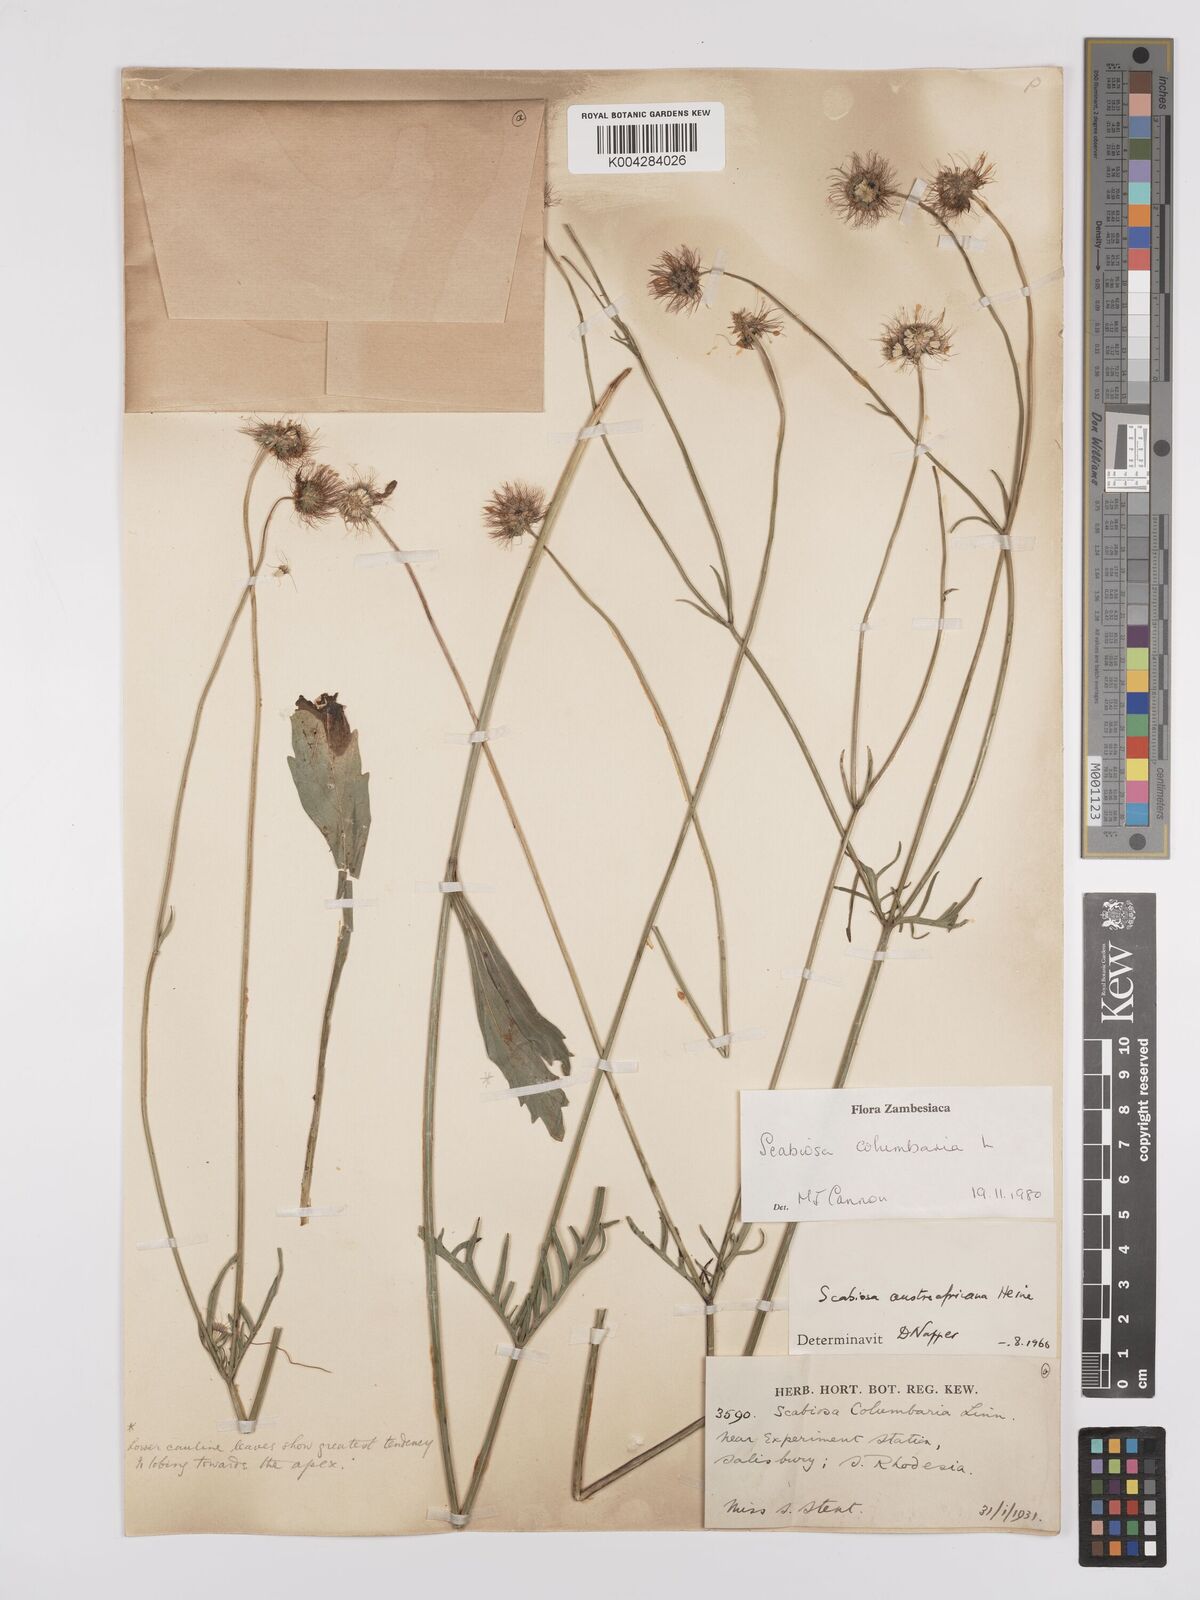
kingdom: Plantae
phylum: Tracheophyta
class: Magnoliopsida
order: Dipsacales
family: Caprifoliaceae
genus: Scabiosa
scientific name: Scabiosa austroafricana
